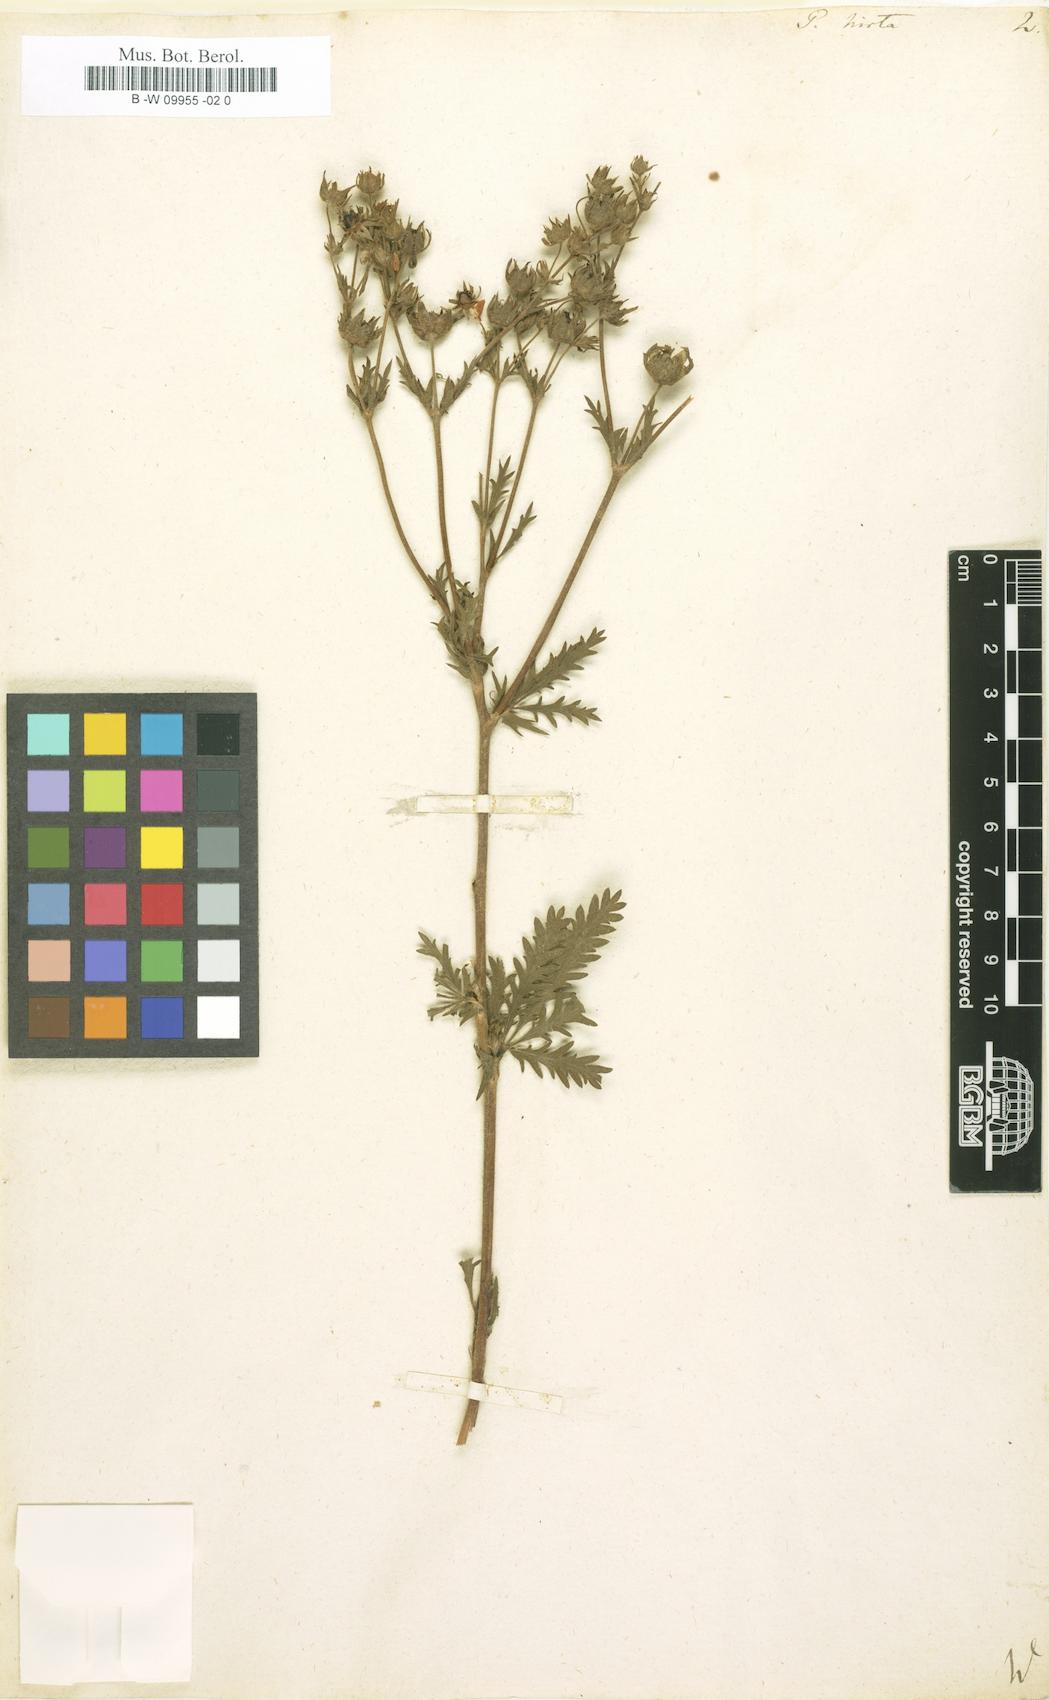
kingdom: Plantae
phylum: Tracheophyta
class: Magnoliopsida
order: Rosales
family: Rosaceae
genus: Potentilla
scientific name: Potentilla hirta
